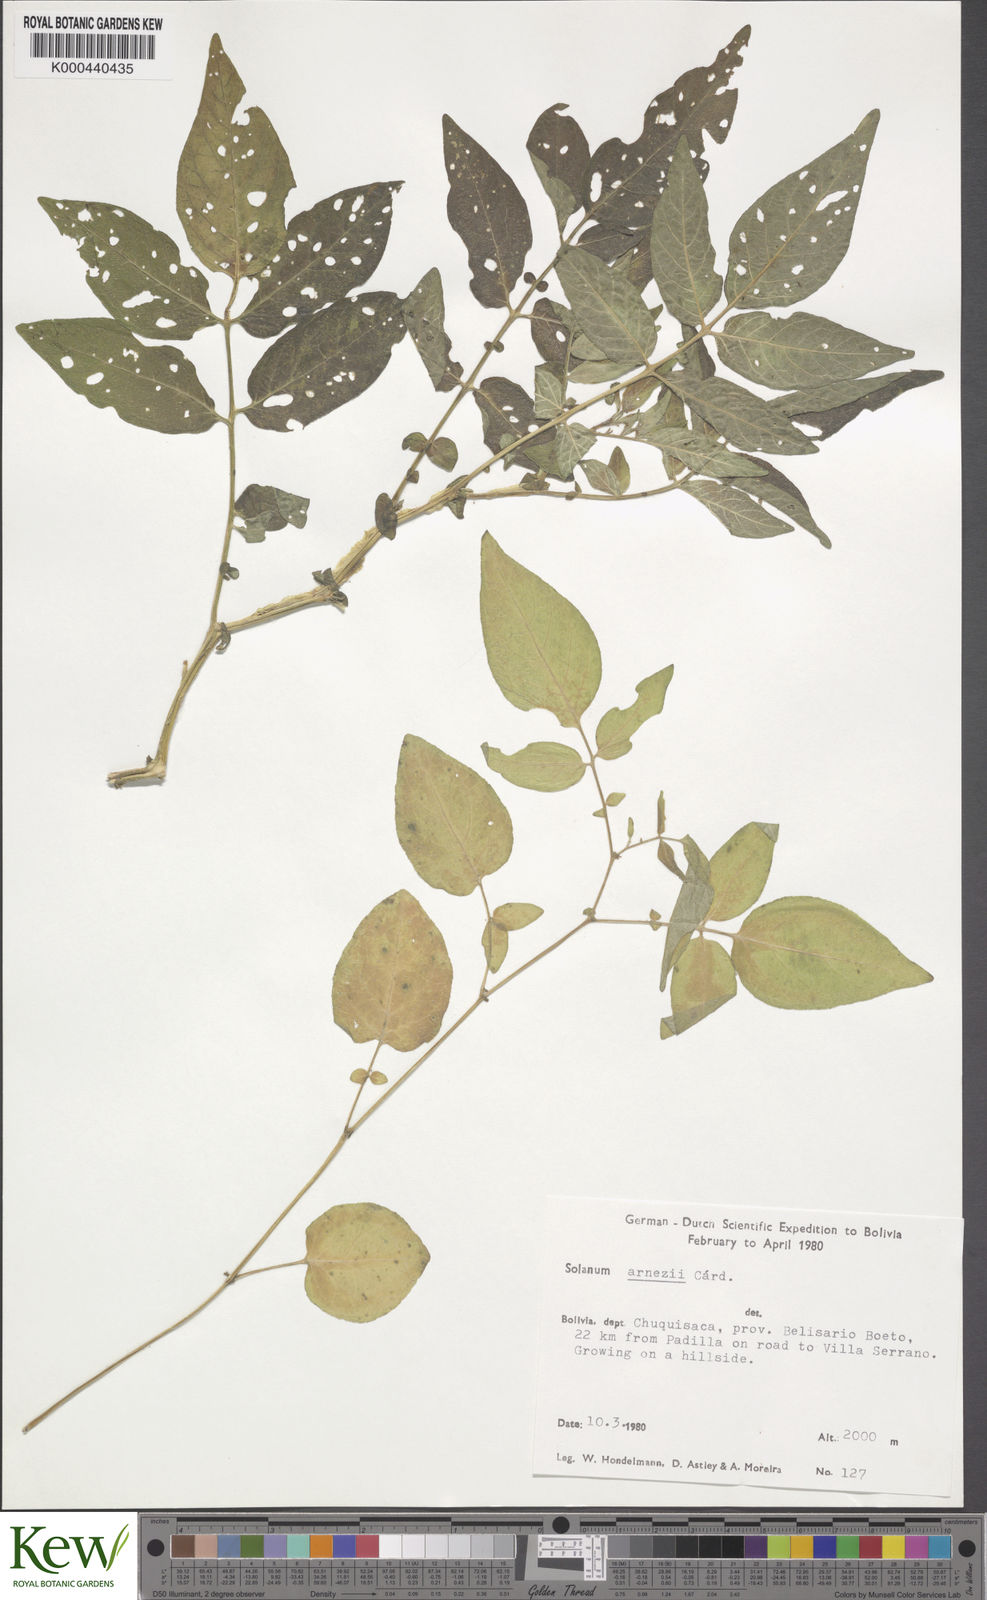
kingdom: Plantae
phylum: Tracheophyta
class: Magnoliopsida
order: Solanales
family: Solanaceae
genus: Solanum
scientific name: Solanum chacoense
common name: Chaco potato
